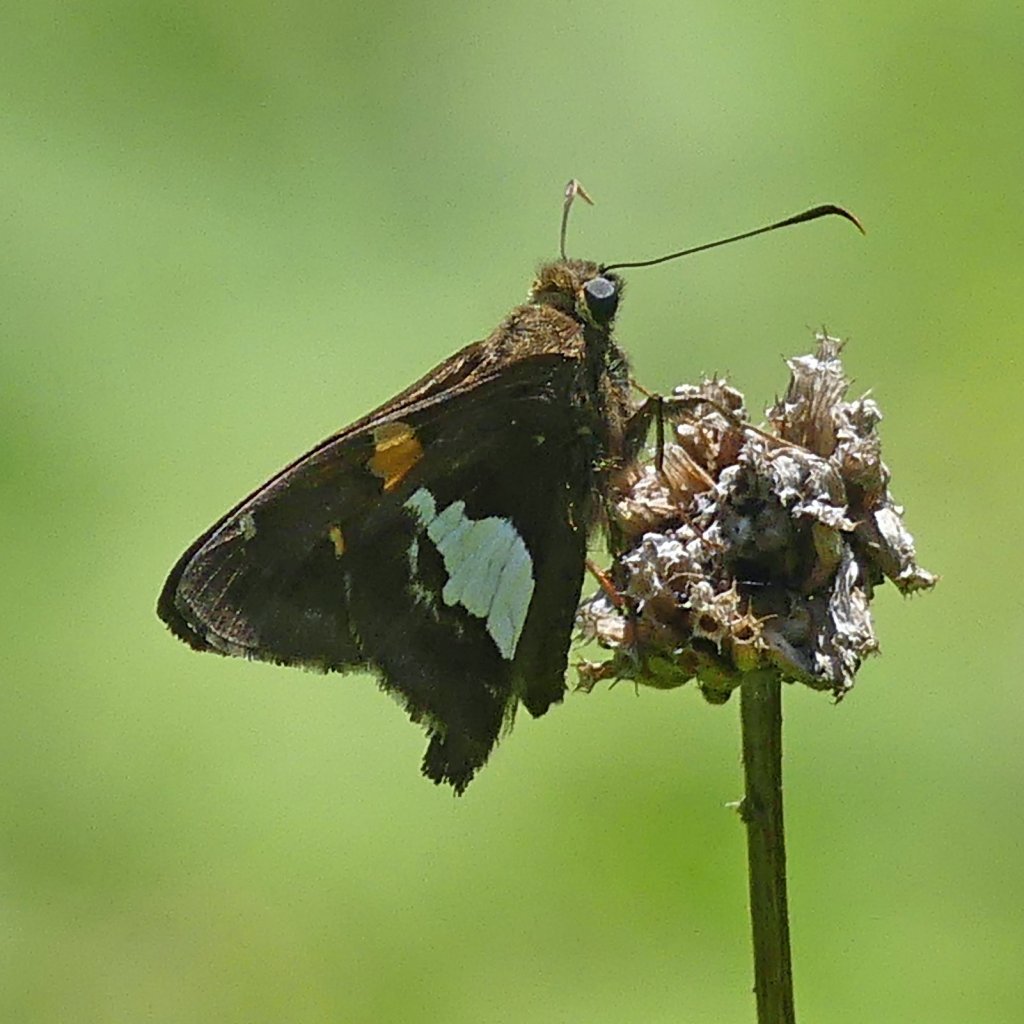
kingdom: Animalia
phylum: Arthropoda
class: Insecta
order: Lepidoptera
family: Hesperiidae
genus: Epargyreus
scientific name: Epargyreus clarus
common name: Silver-spotted Skipper
